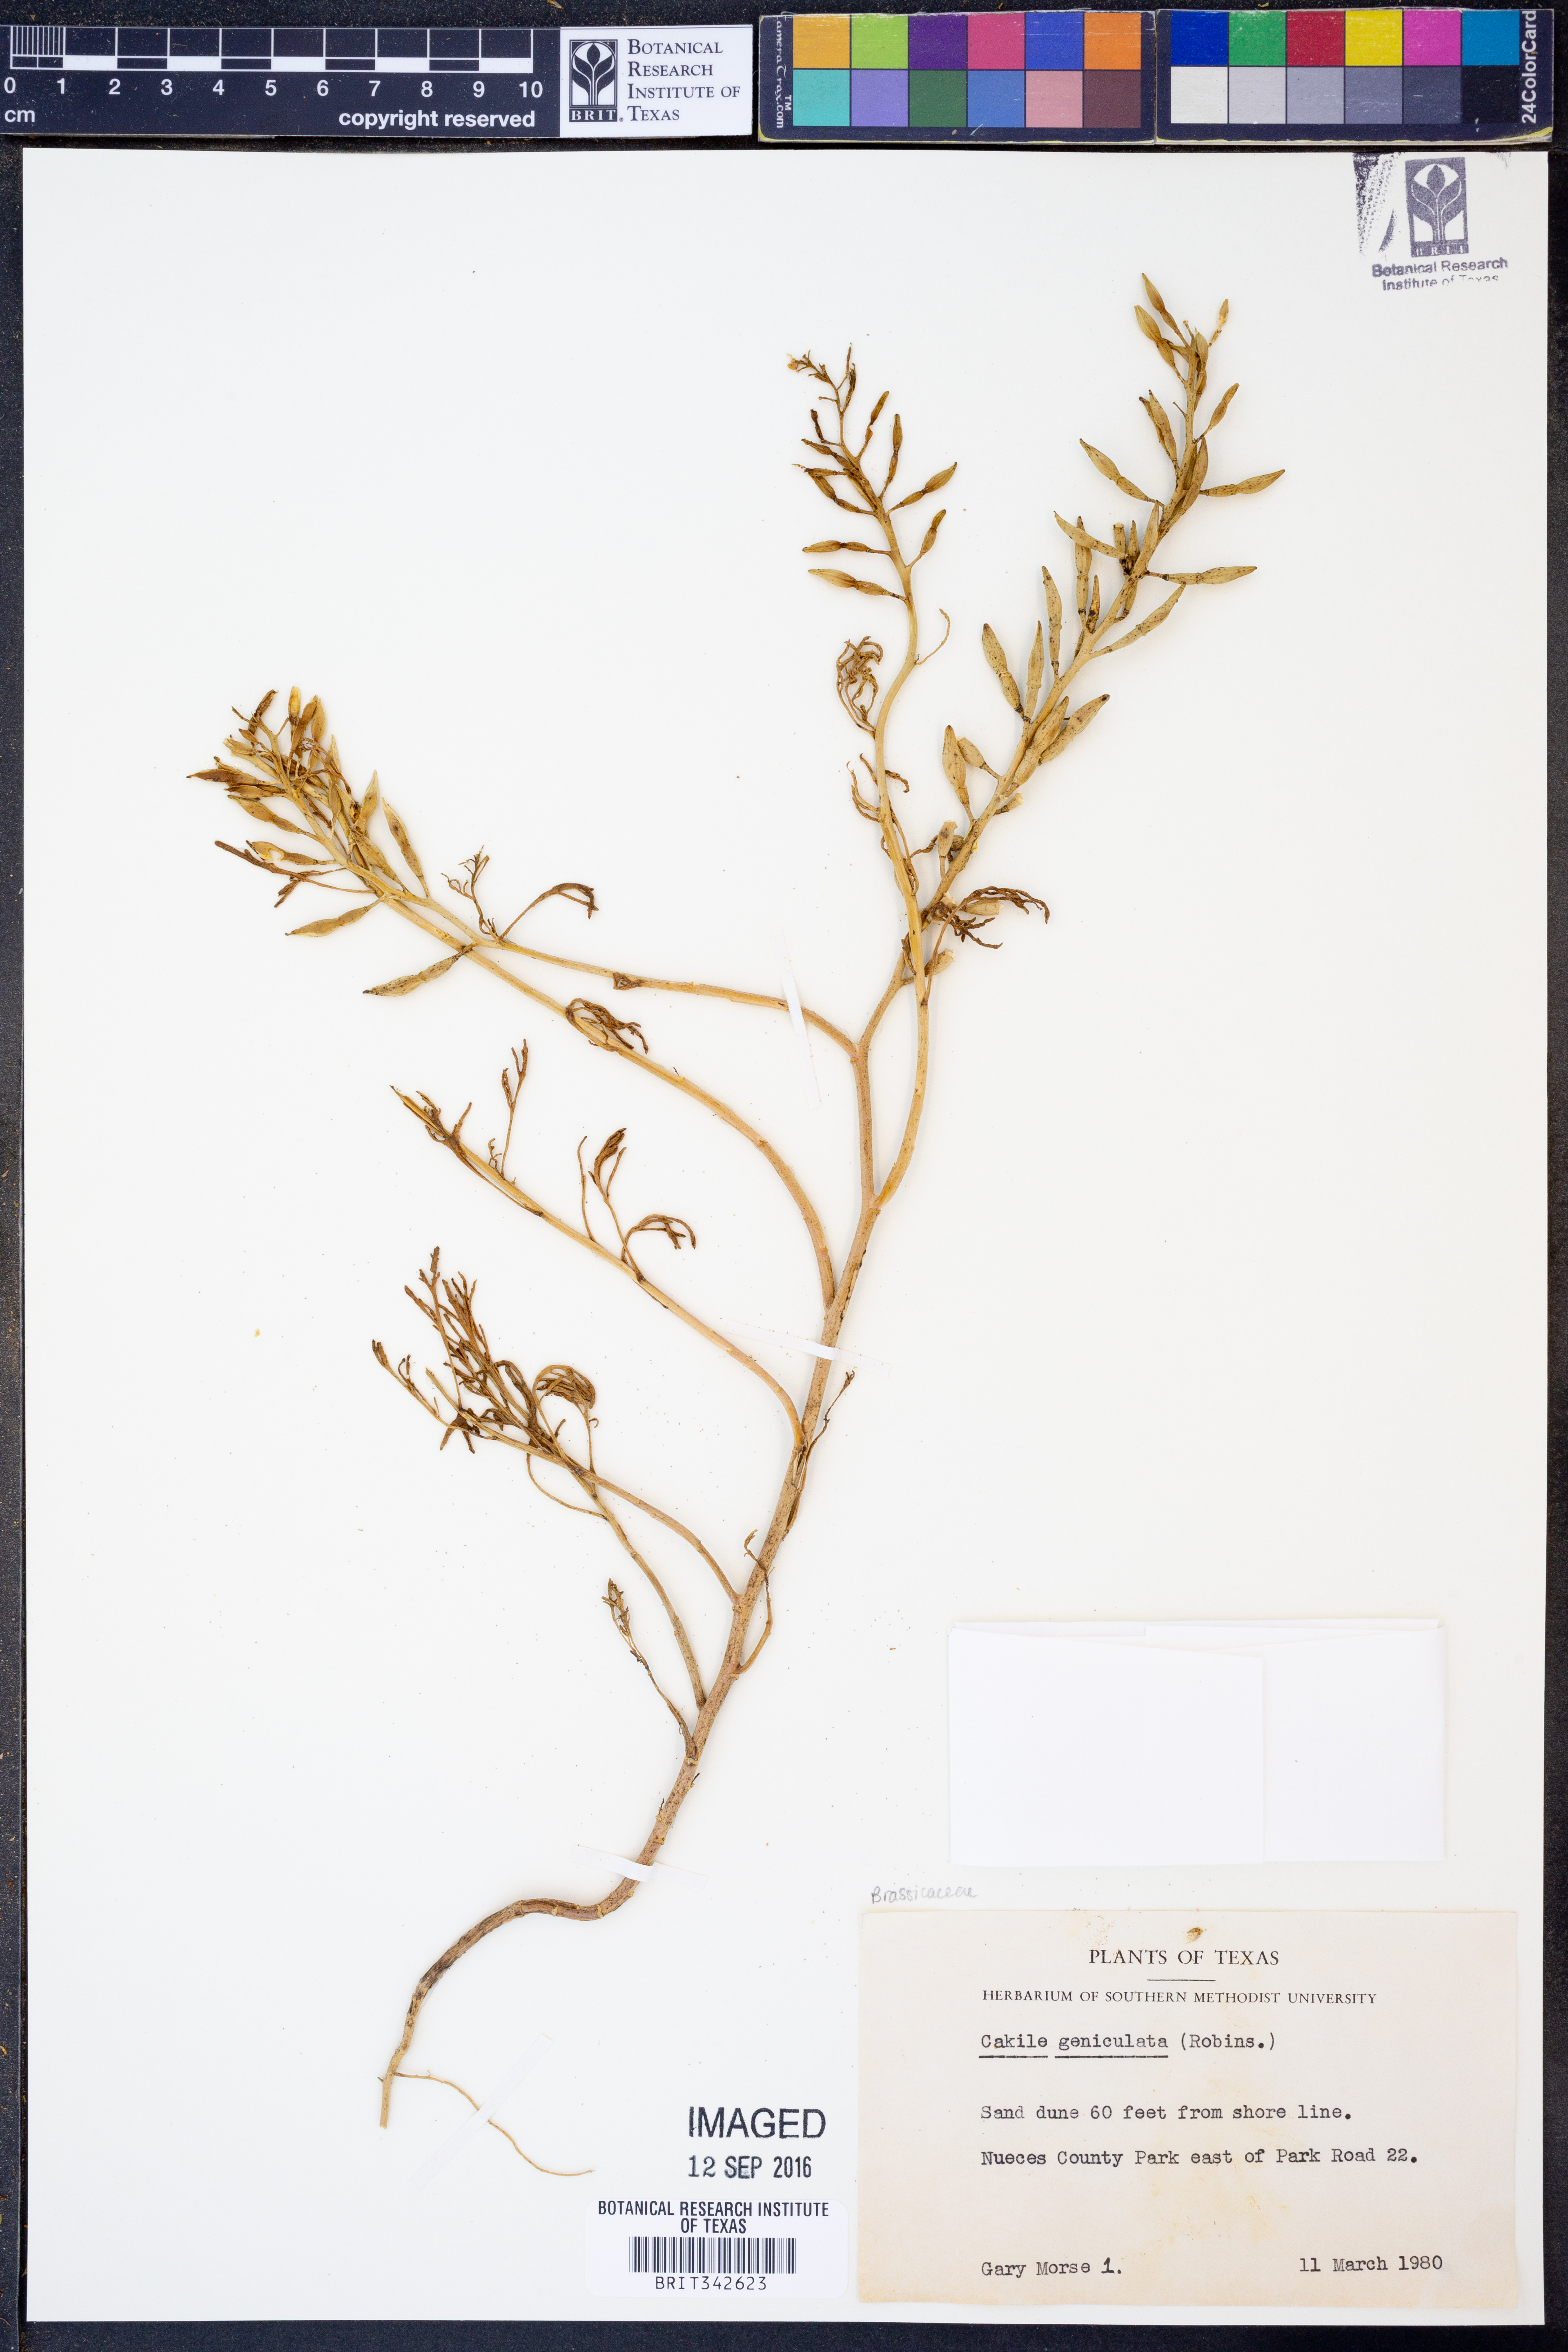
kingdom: Plantae
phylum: Tracheophyta
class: Magnoliopsida
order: Brassicales
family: Brassicaceae
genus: Cakile
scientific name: Cakile geniculata
